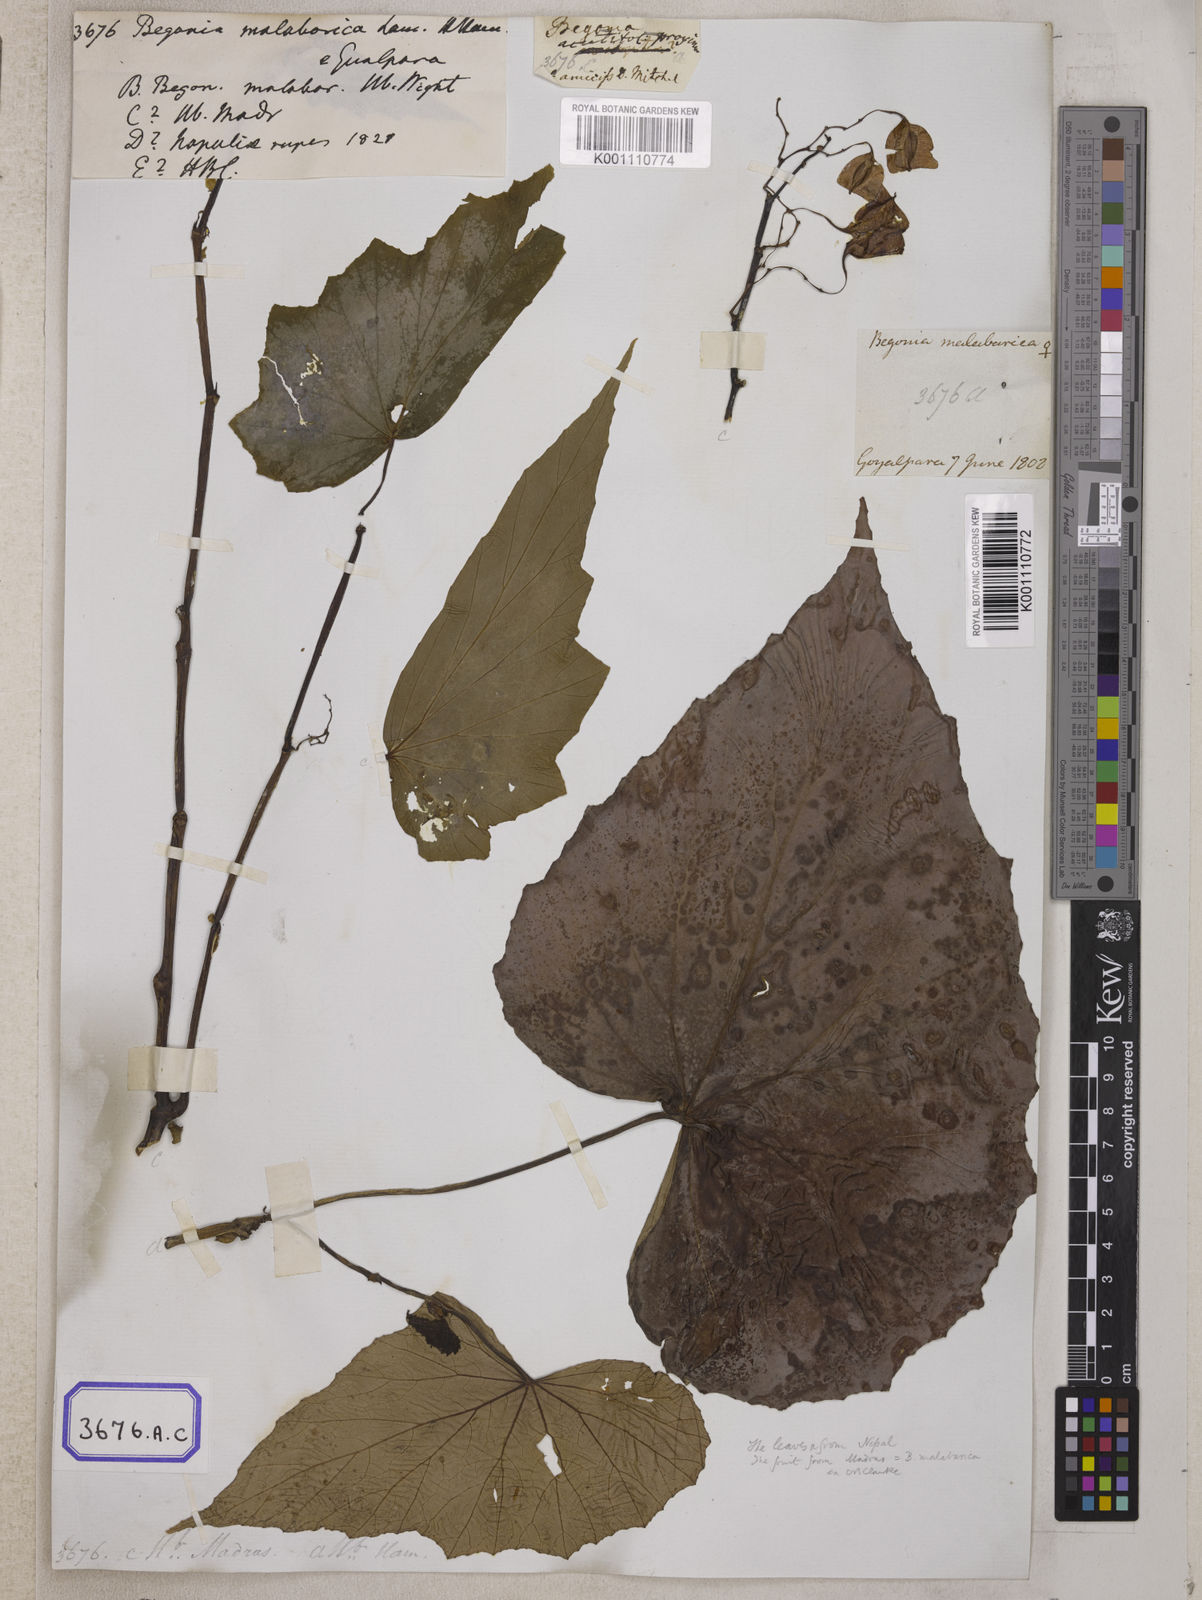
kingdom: Plantae
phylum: Tracheophyta
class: Magnoliopsida
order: Cucurbitales
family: Begoniaceae
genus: Begonia
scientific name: Begonia
